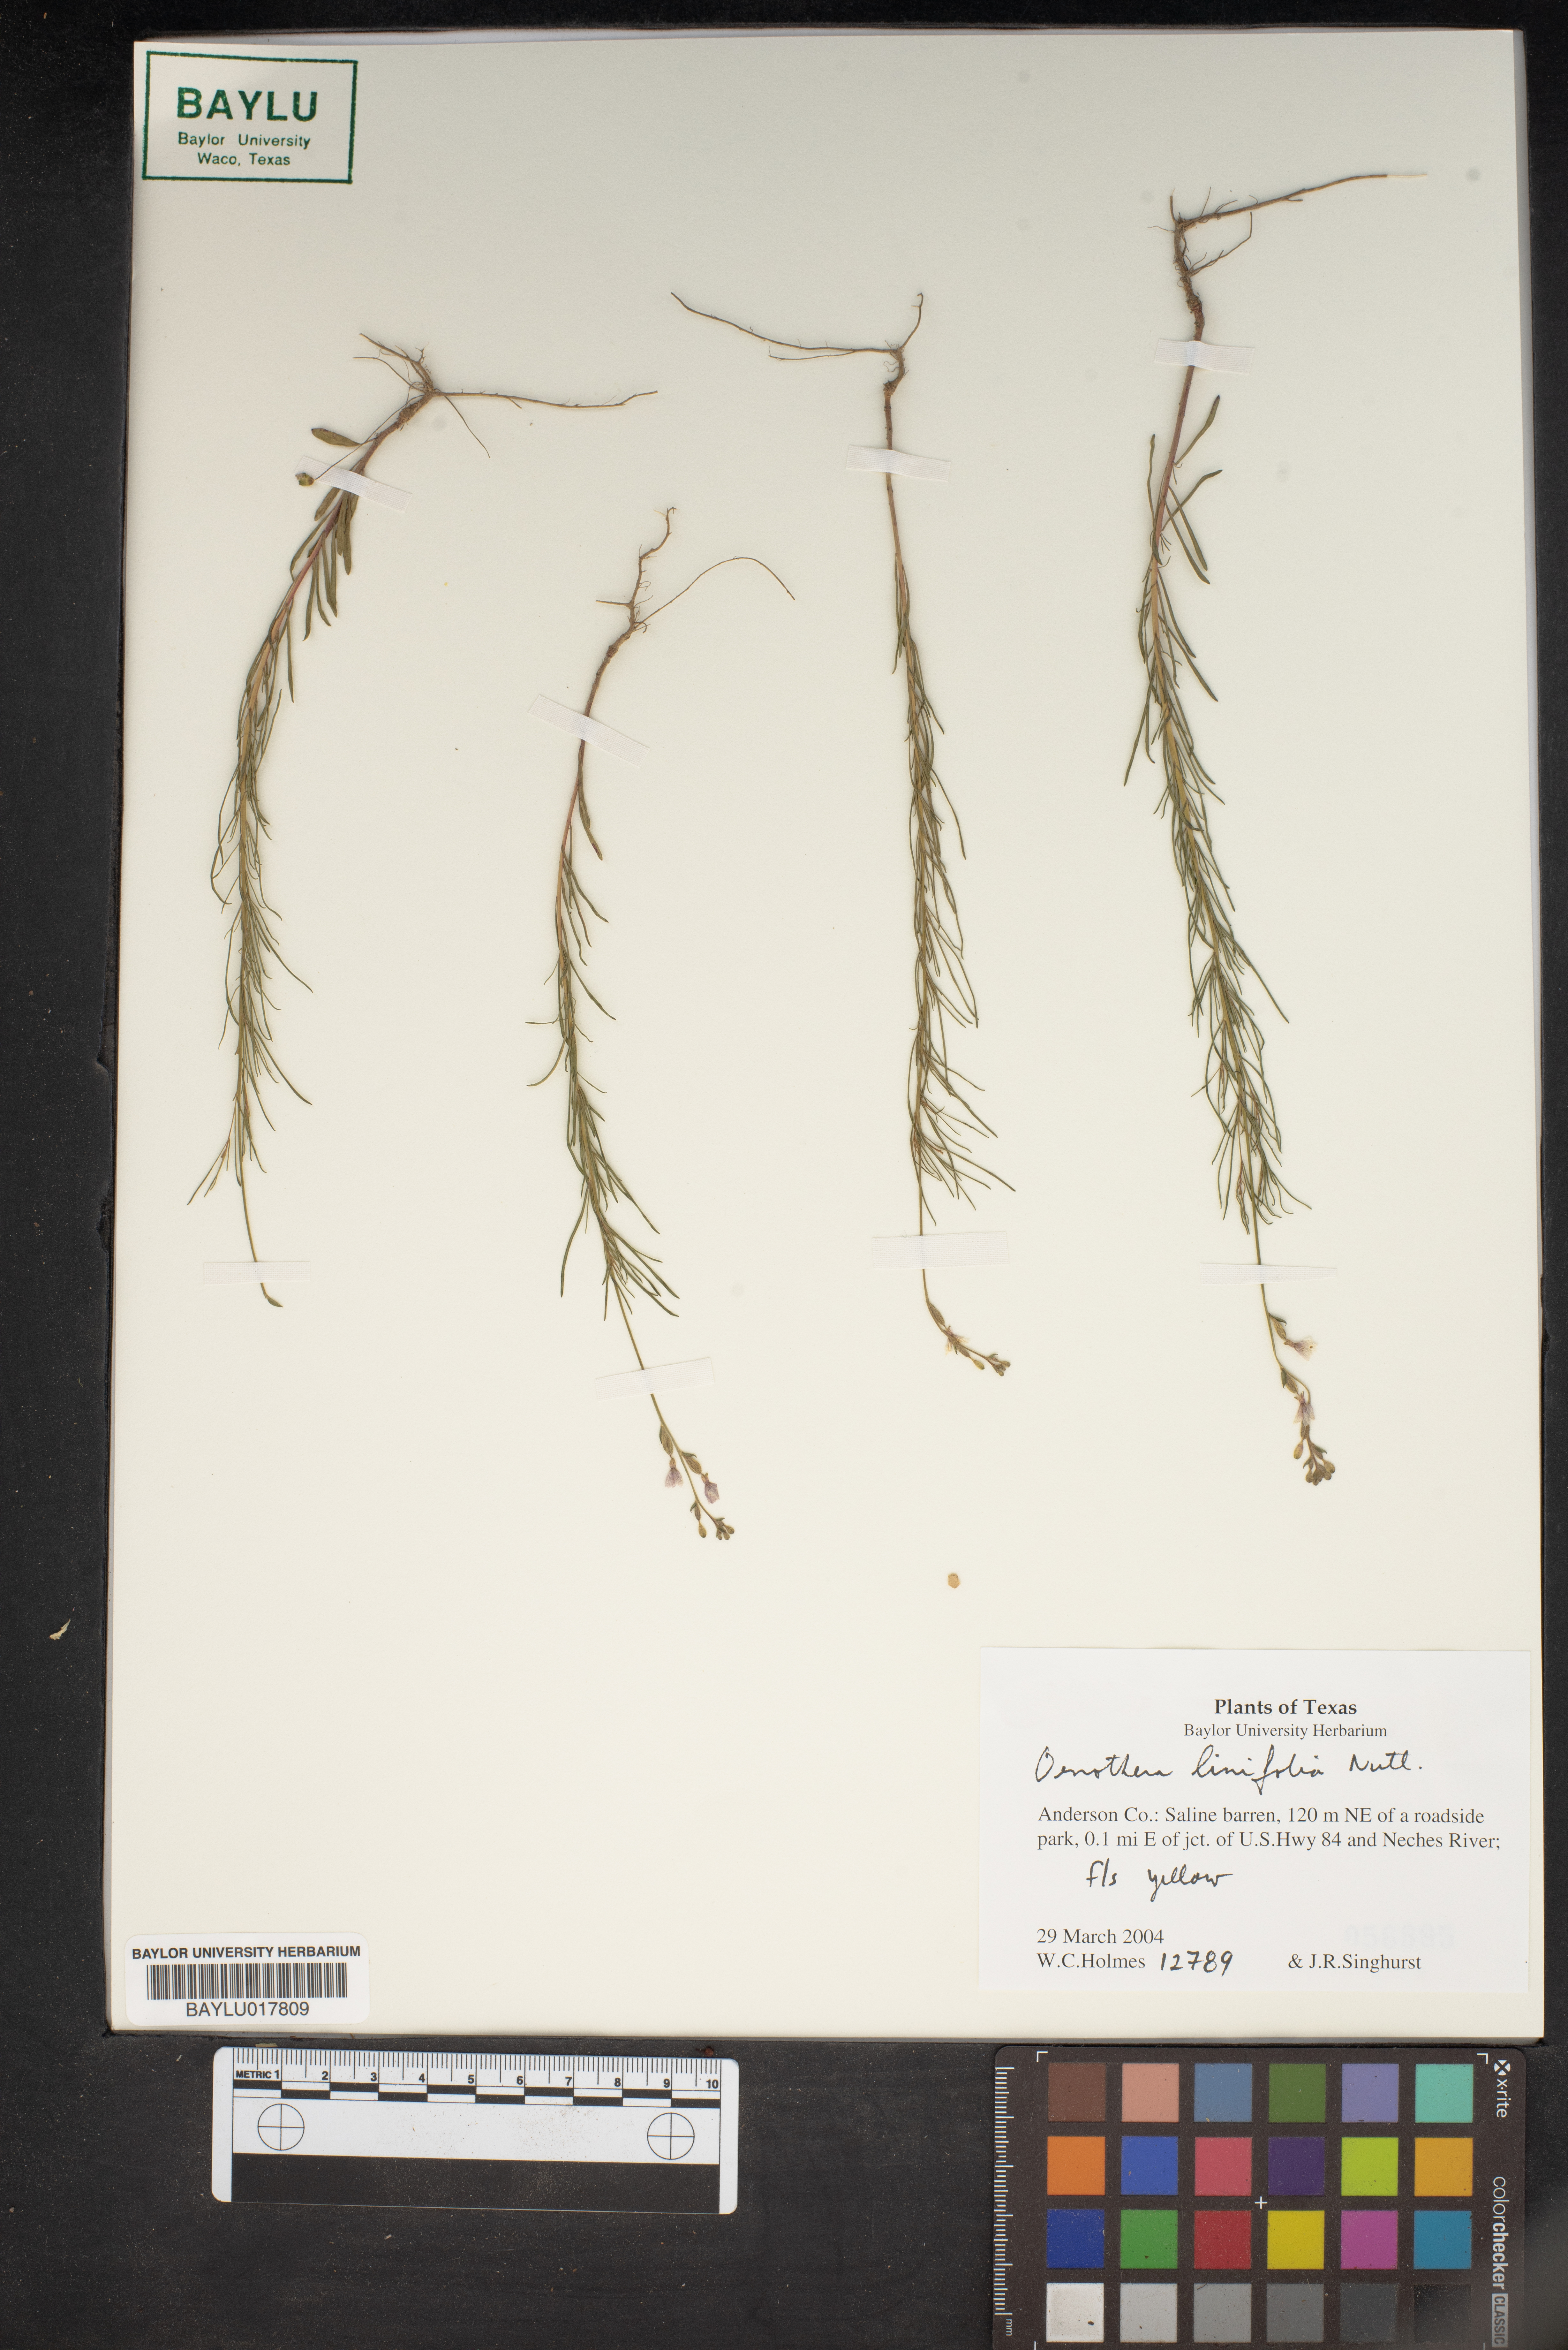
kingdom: Plantae
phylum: Tracheophyta
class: Magnoliopsida
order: Myrtales
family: Onagraceae
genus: Oenothera
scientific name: Oenothera linifolia
